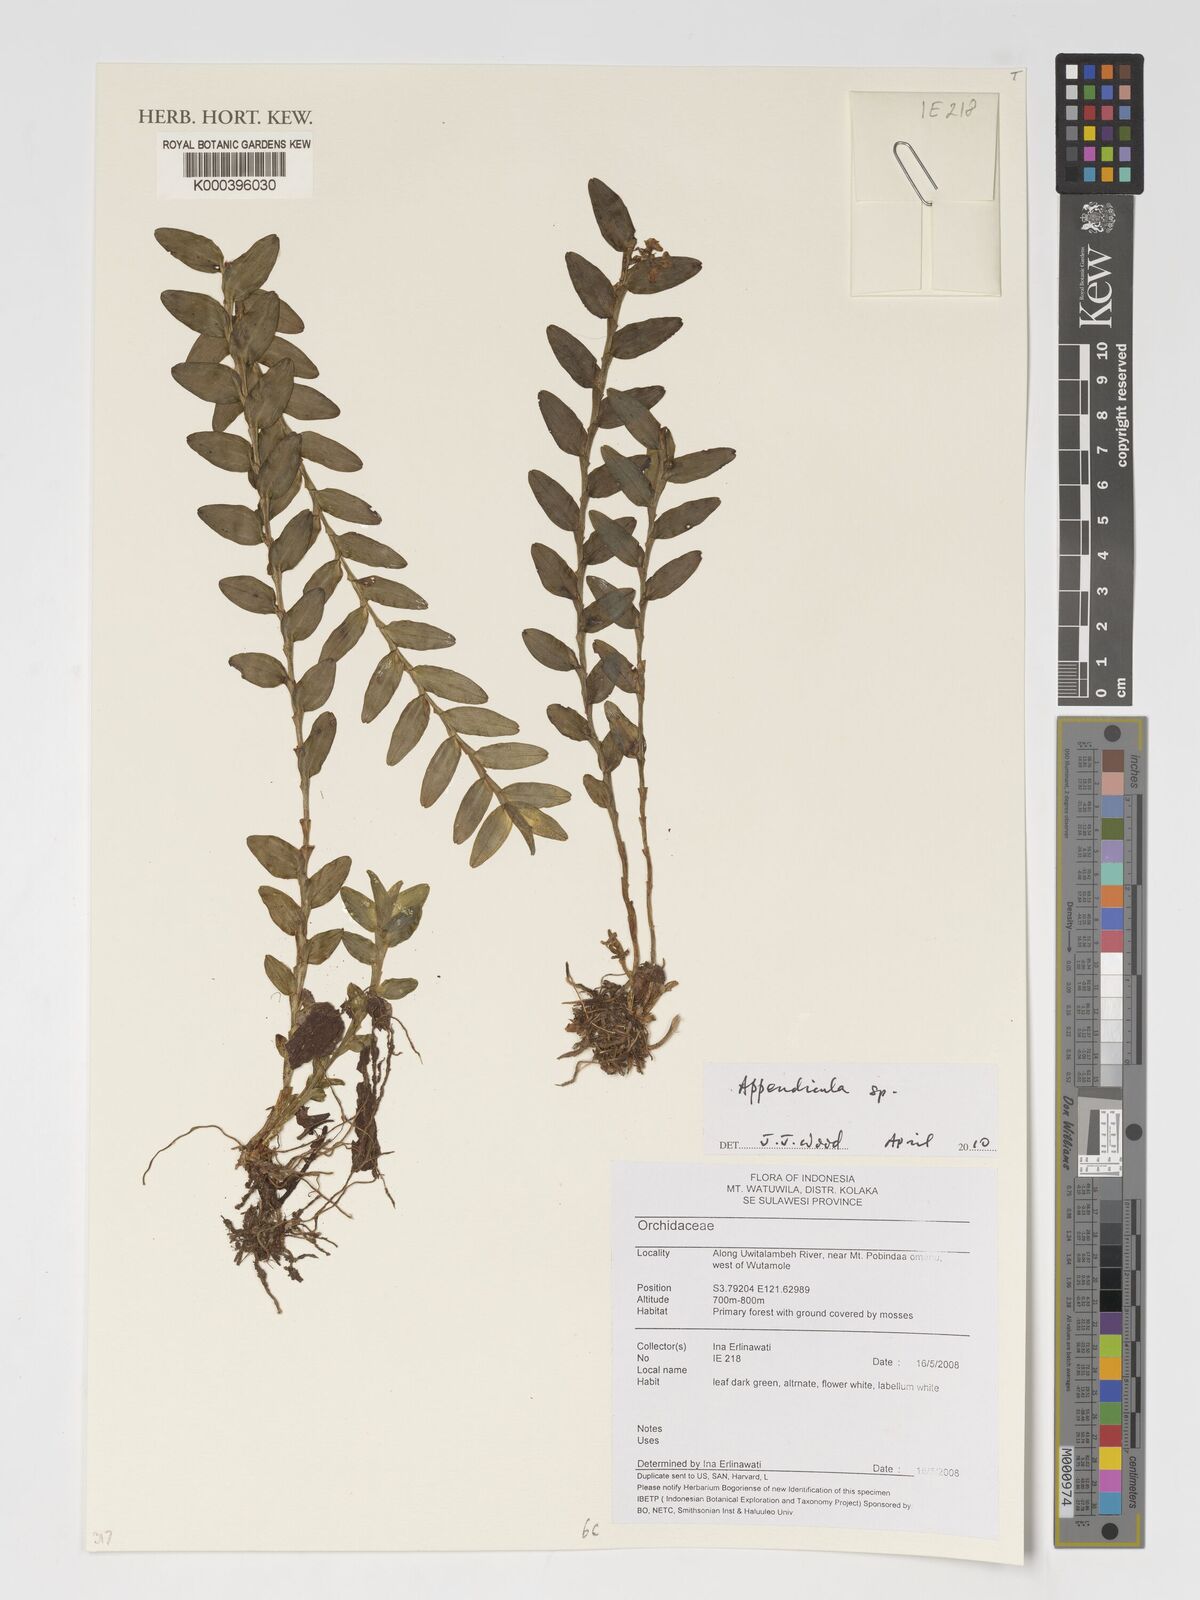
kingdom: Plantae
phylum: Tracheophyta
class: Liliopsida
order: Asparagales
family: Orchidaceae
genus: Appendicula
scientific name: Appendicula
